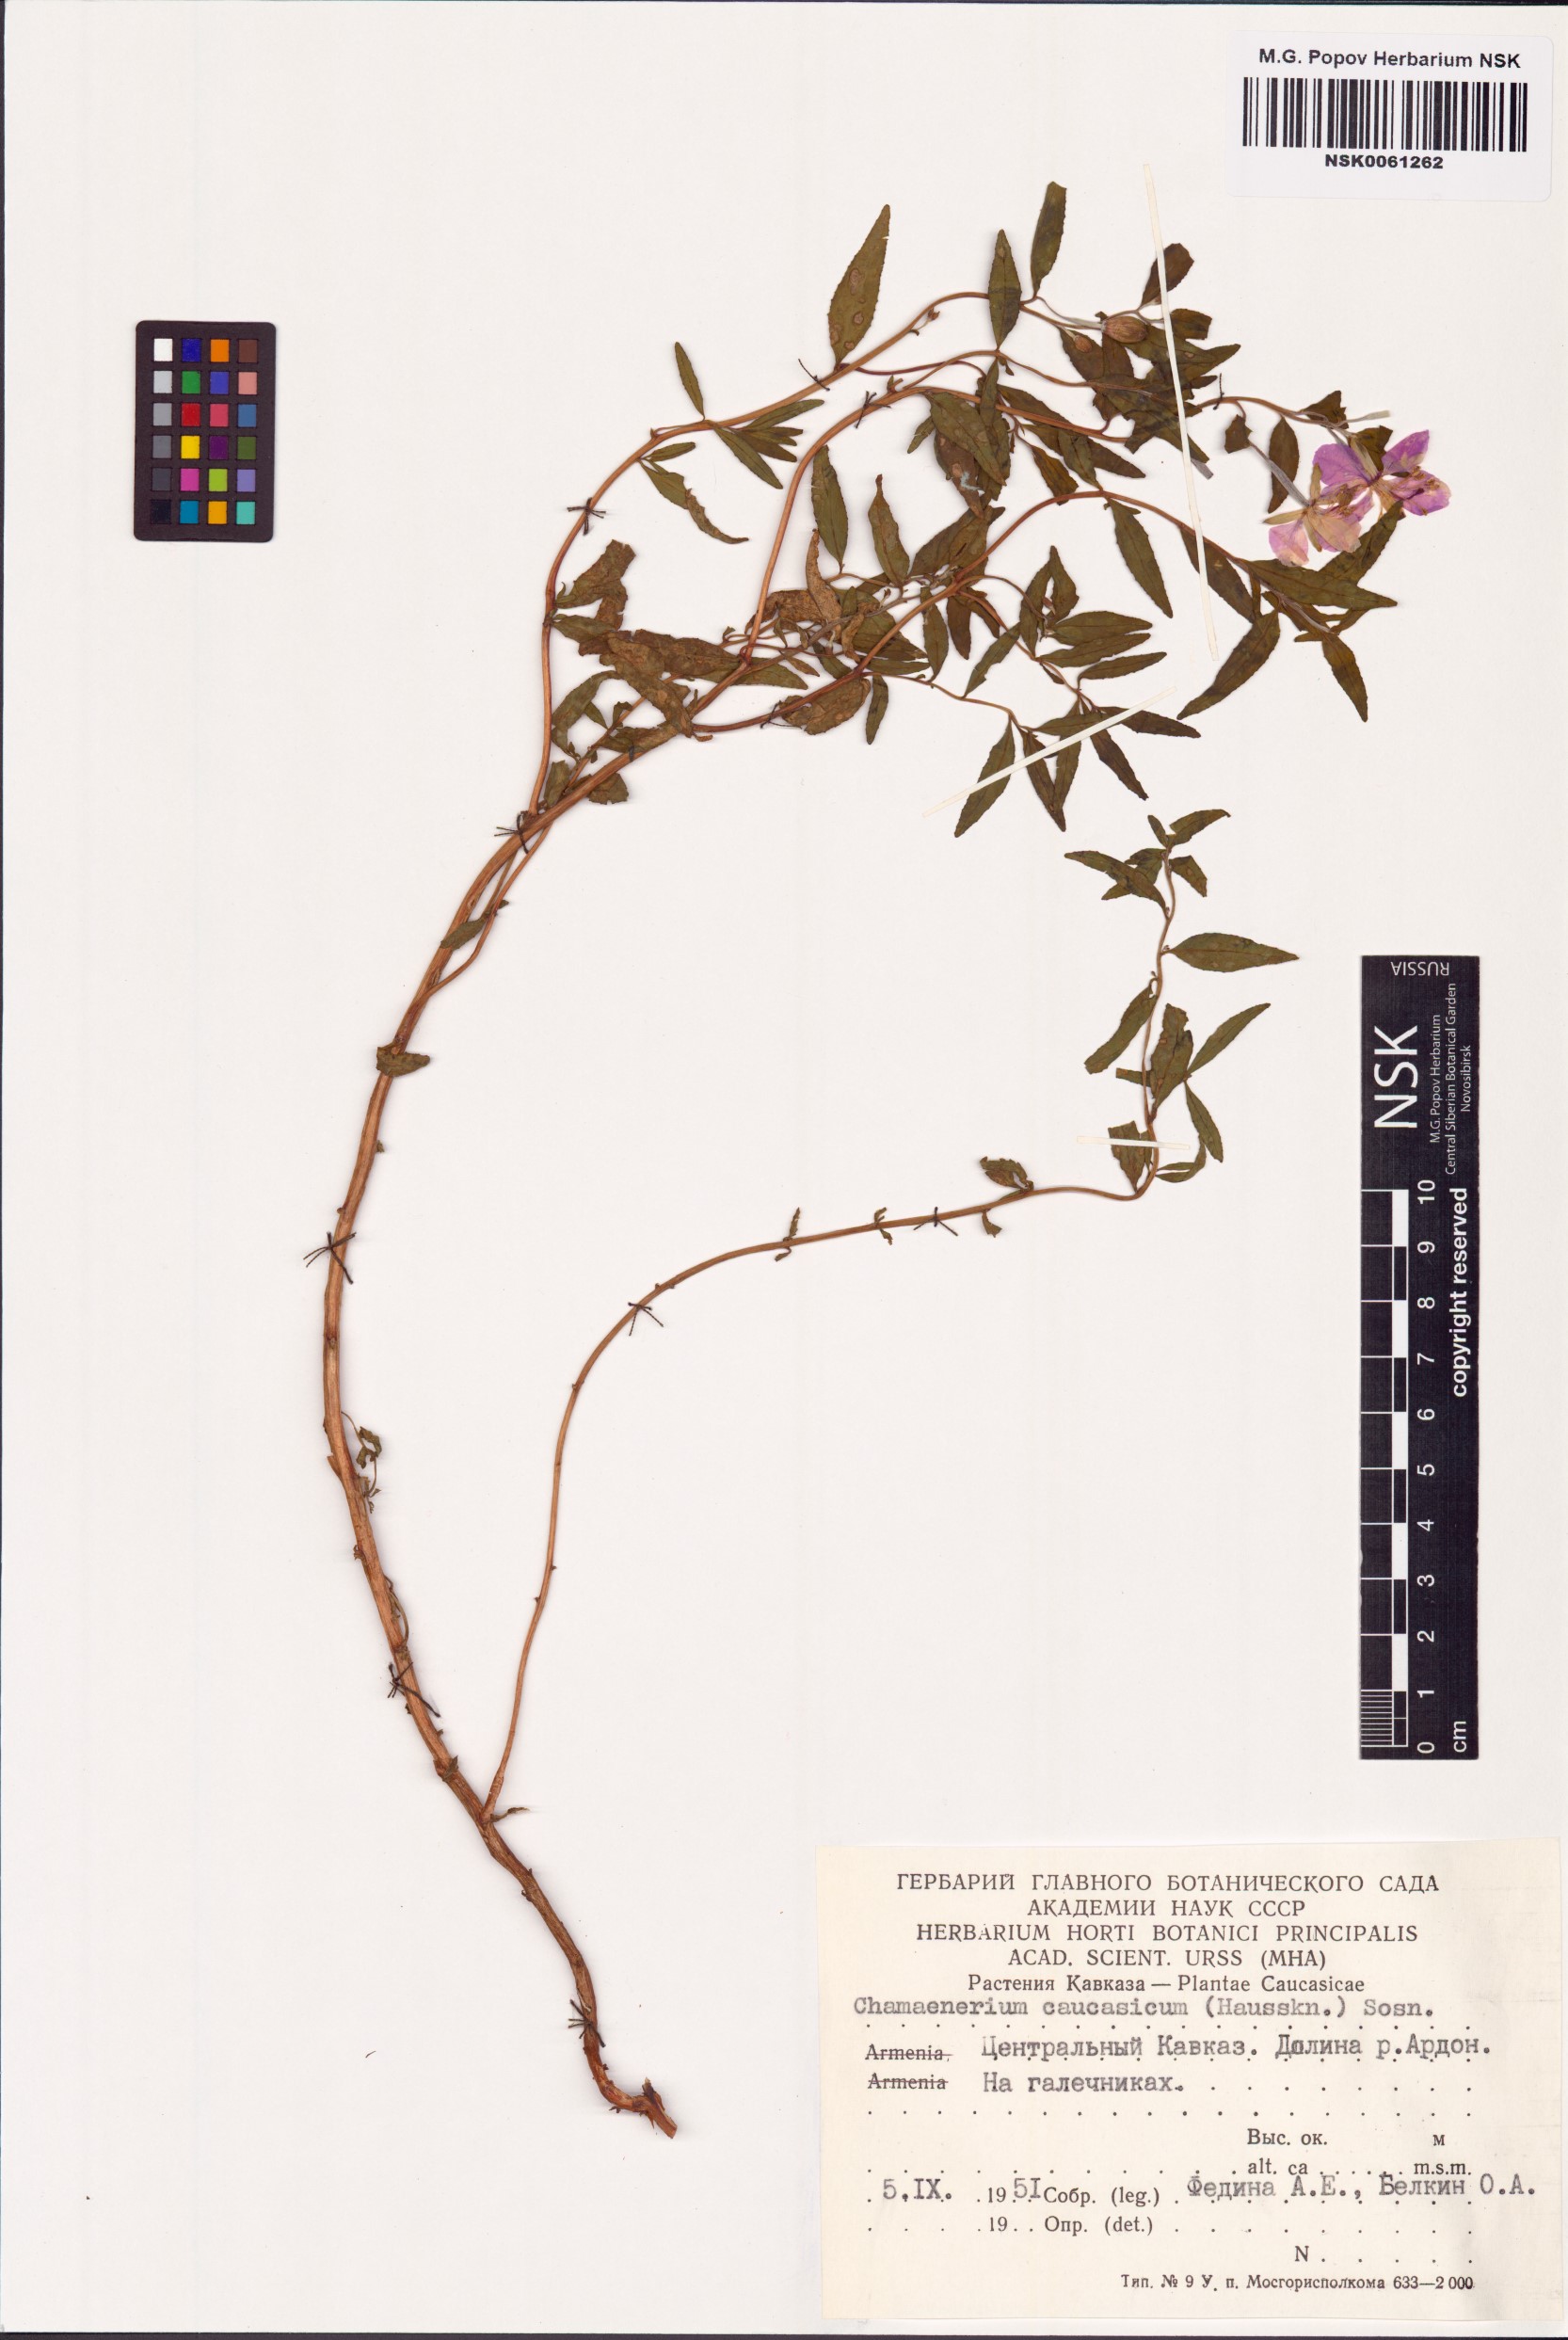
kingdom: Plantae
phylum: Tracheophyta
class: Magnoliopsida
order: Myrtales
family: Onagraceae
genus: Chamaenerion
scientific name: Chamaenerion colchicum
